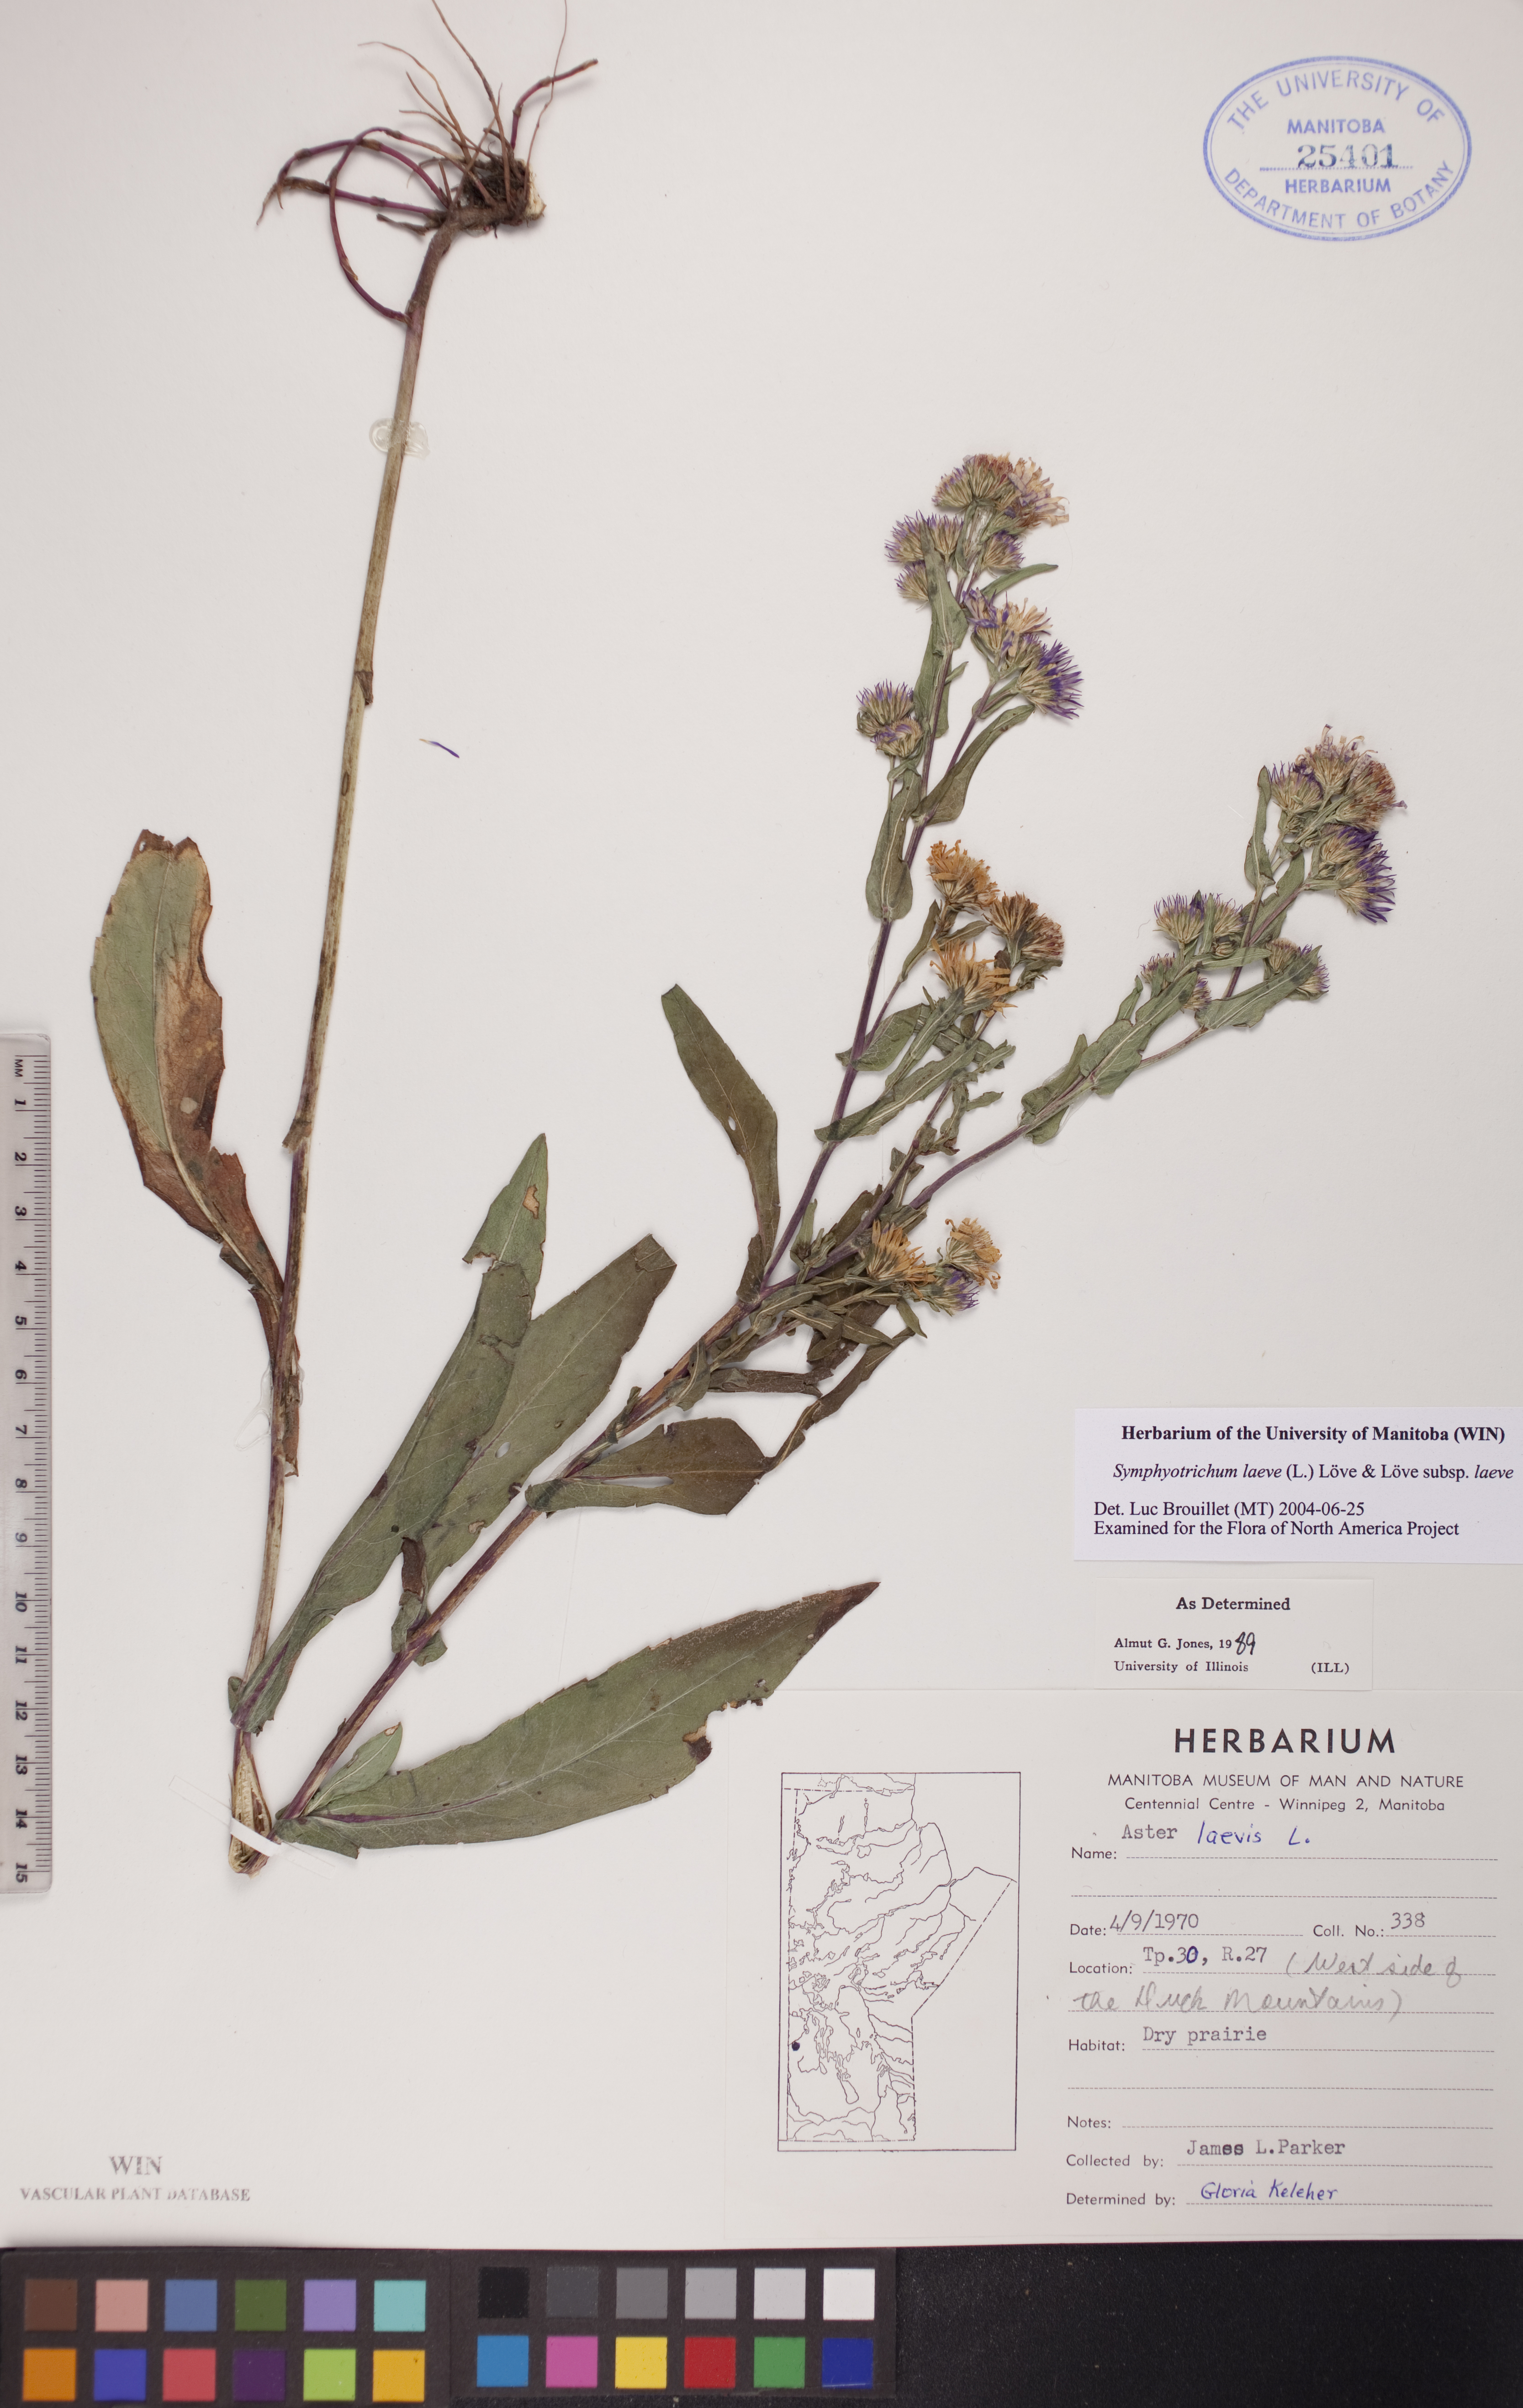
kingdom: Plantae
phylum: Tracheophyta
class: Magnoliopsida
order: Asterales
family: Asteraceae
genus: Symphyotrichum
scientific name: Symphyotrichum laeve
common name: Glaucous aster
